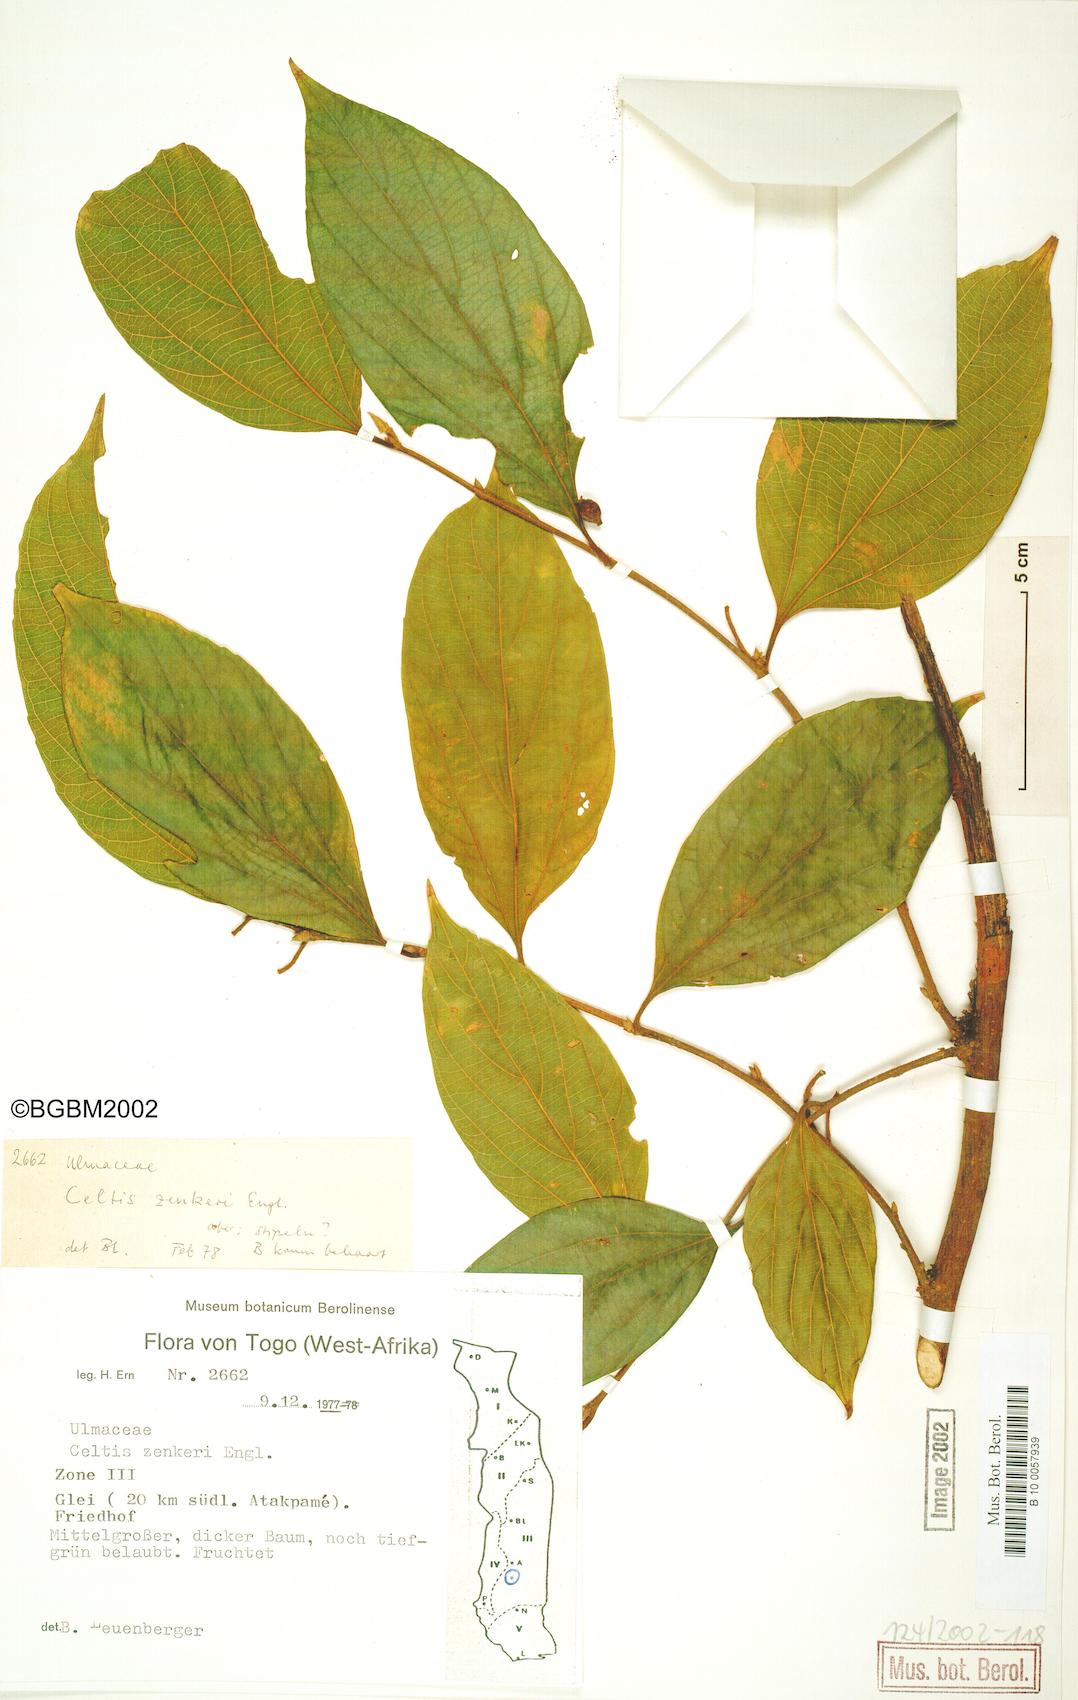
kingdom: Plantae
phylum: Tracheophyta
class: Magnoliopsida
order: Rosales
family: Cannabaceae
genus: Celtis
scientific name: Celtis zenkeri
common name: African celtis
